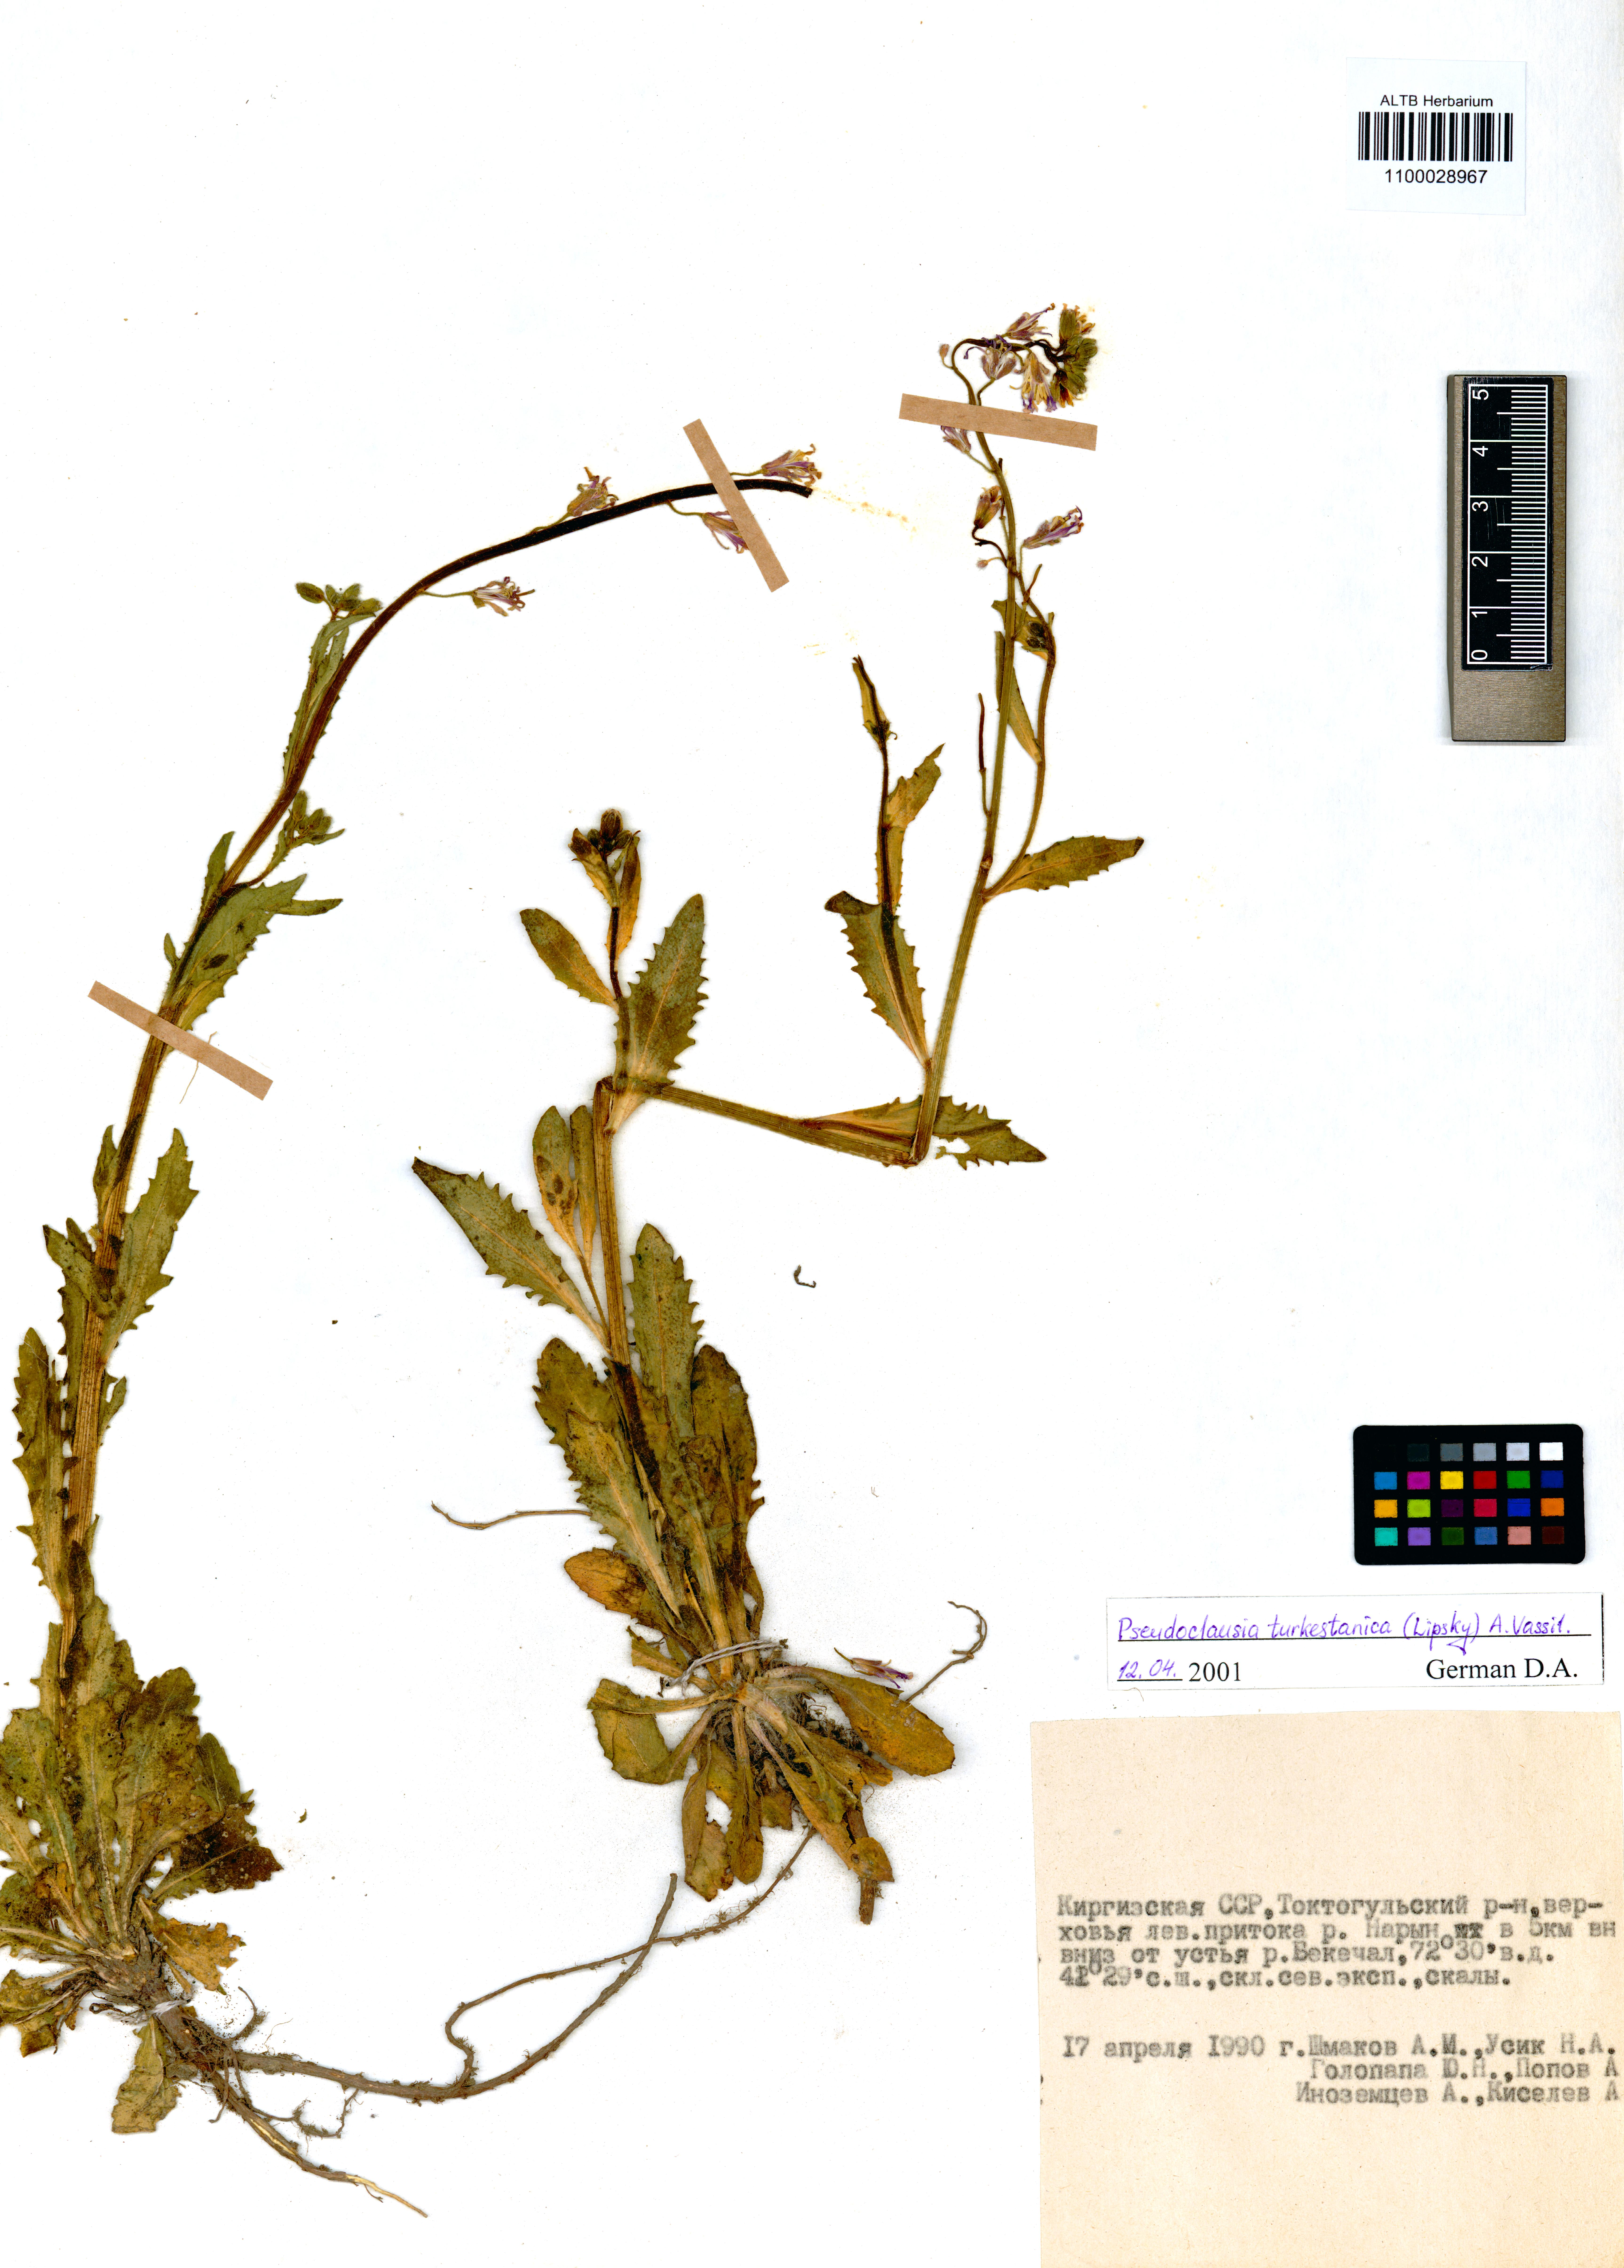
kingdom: Plantae
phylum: Tracheophyta
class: Magnoliopsida
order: Brassicales
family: Brassicaceae
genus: Parrya
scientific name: Parrya khorasanica
